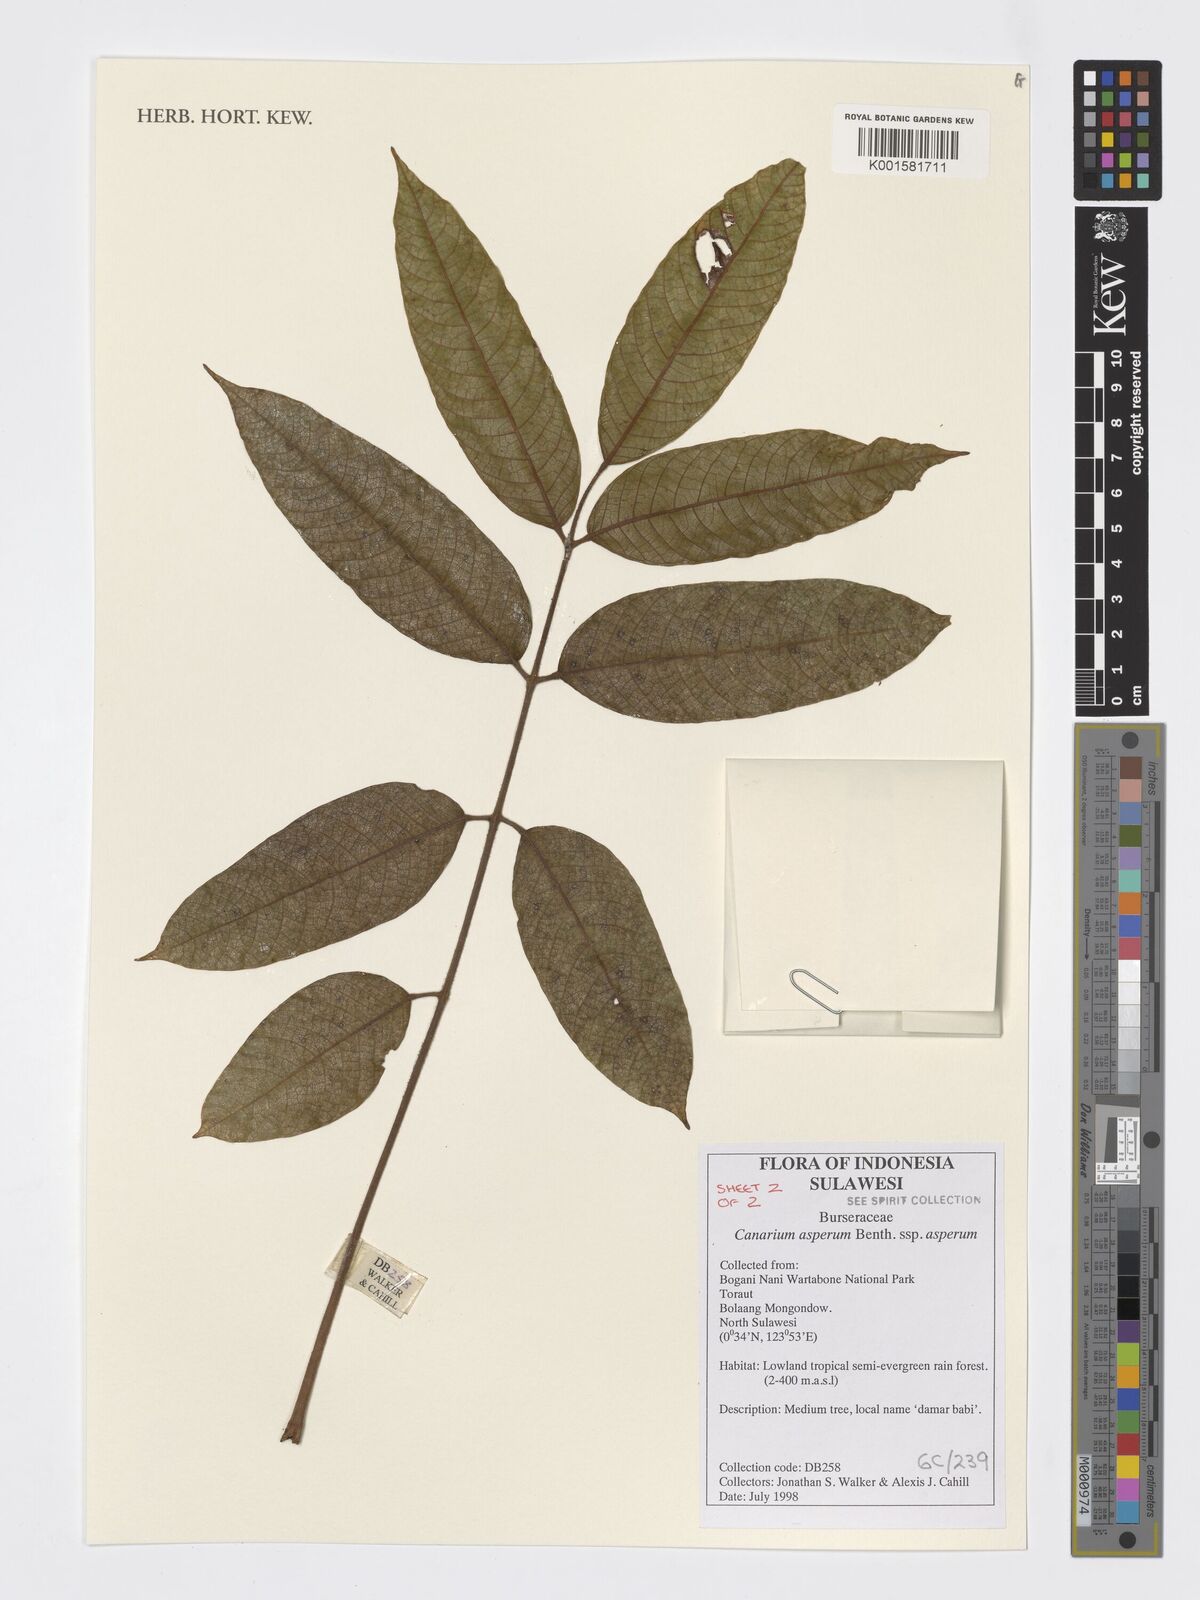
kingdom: Plantae
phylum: Tracheophyta
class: Magnoliopsida
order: Sapindales
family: Burseraceae
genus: Canarium
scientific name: Canarium asperum
